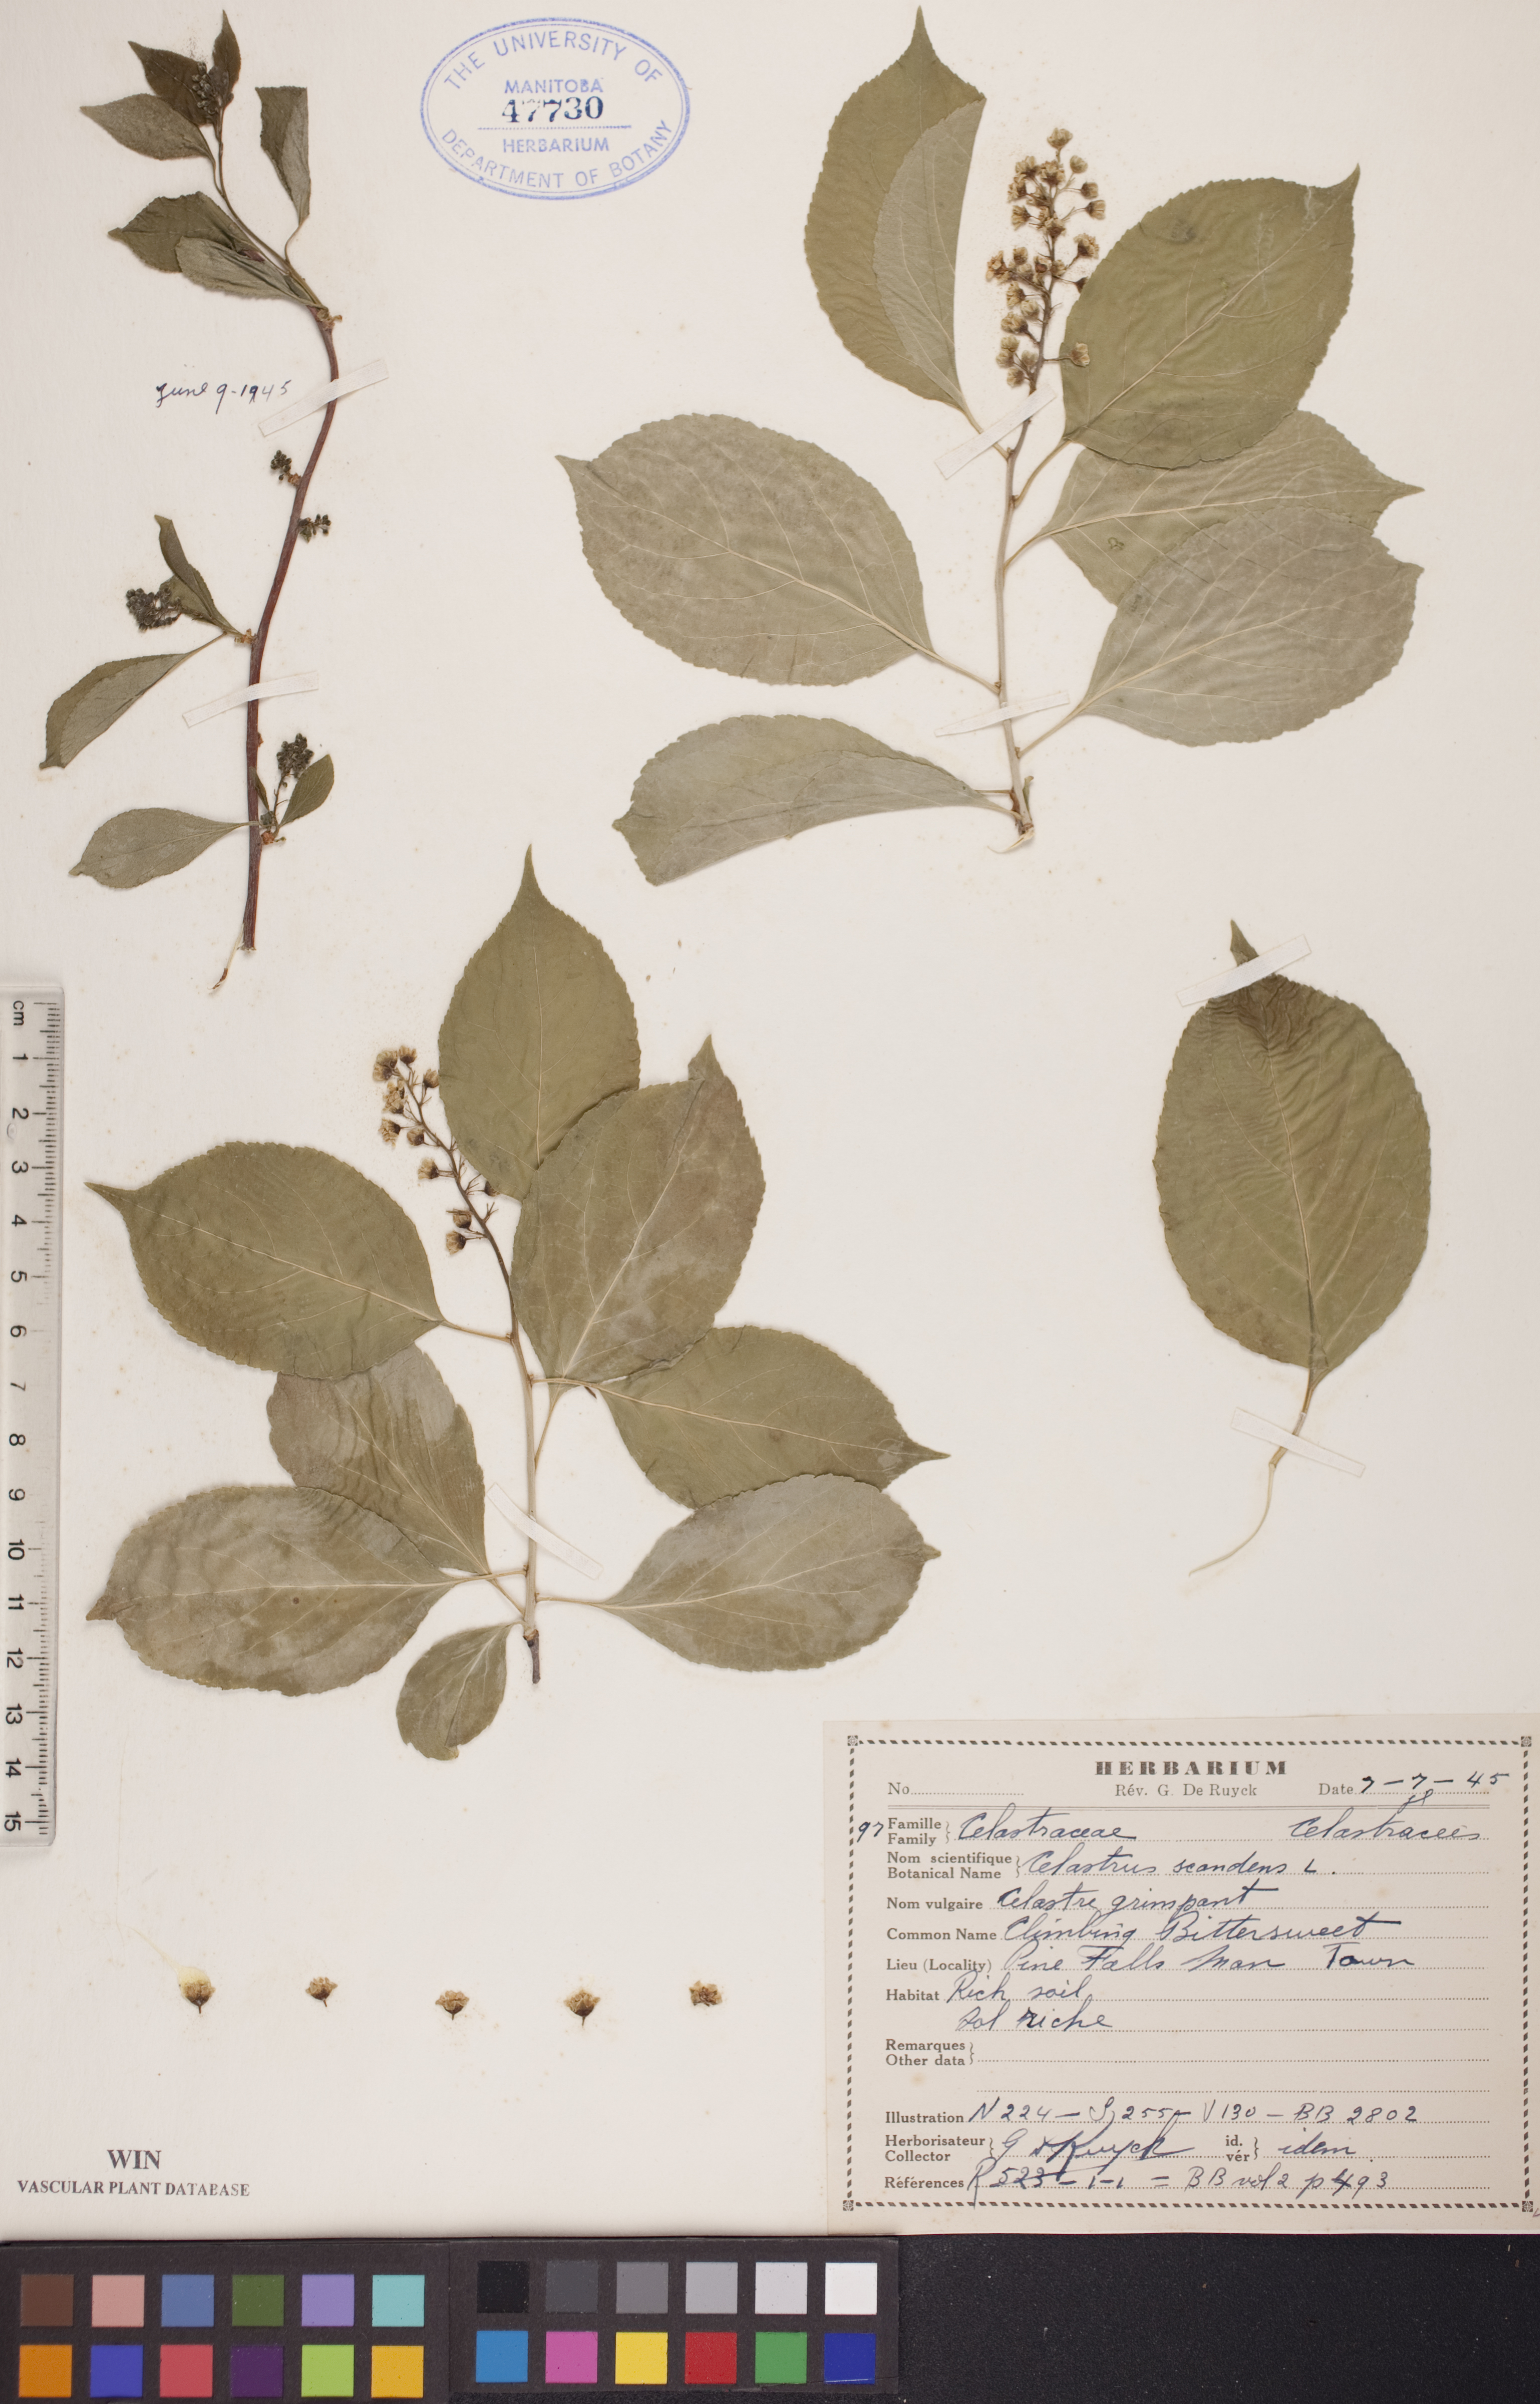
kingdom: Plantae
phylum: Tracheophyta
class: Magnoliopsida
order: Celastrales
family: Celastraceae
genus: Celastrus
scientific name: Celastrus scandens
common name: American bittersweet
